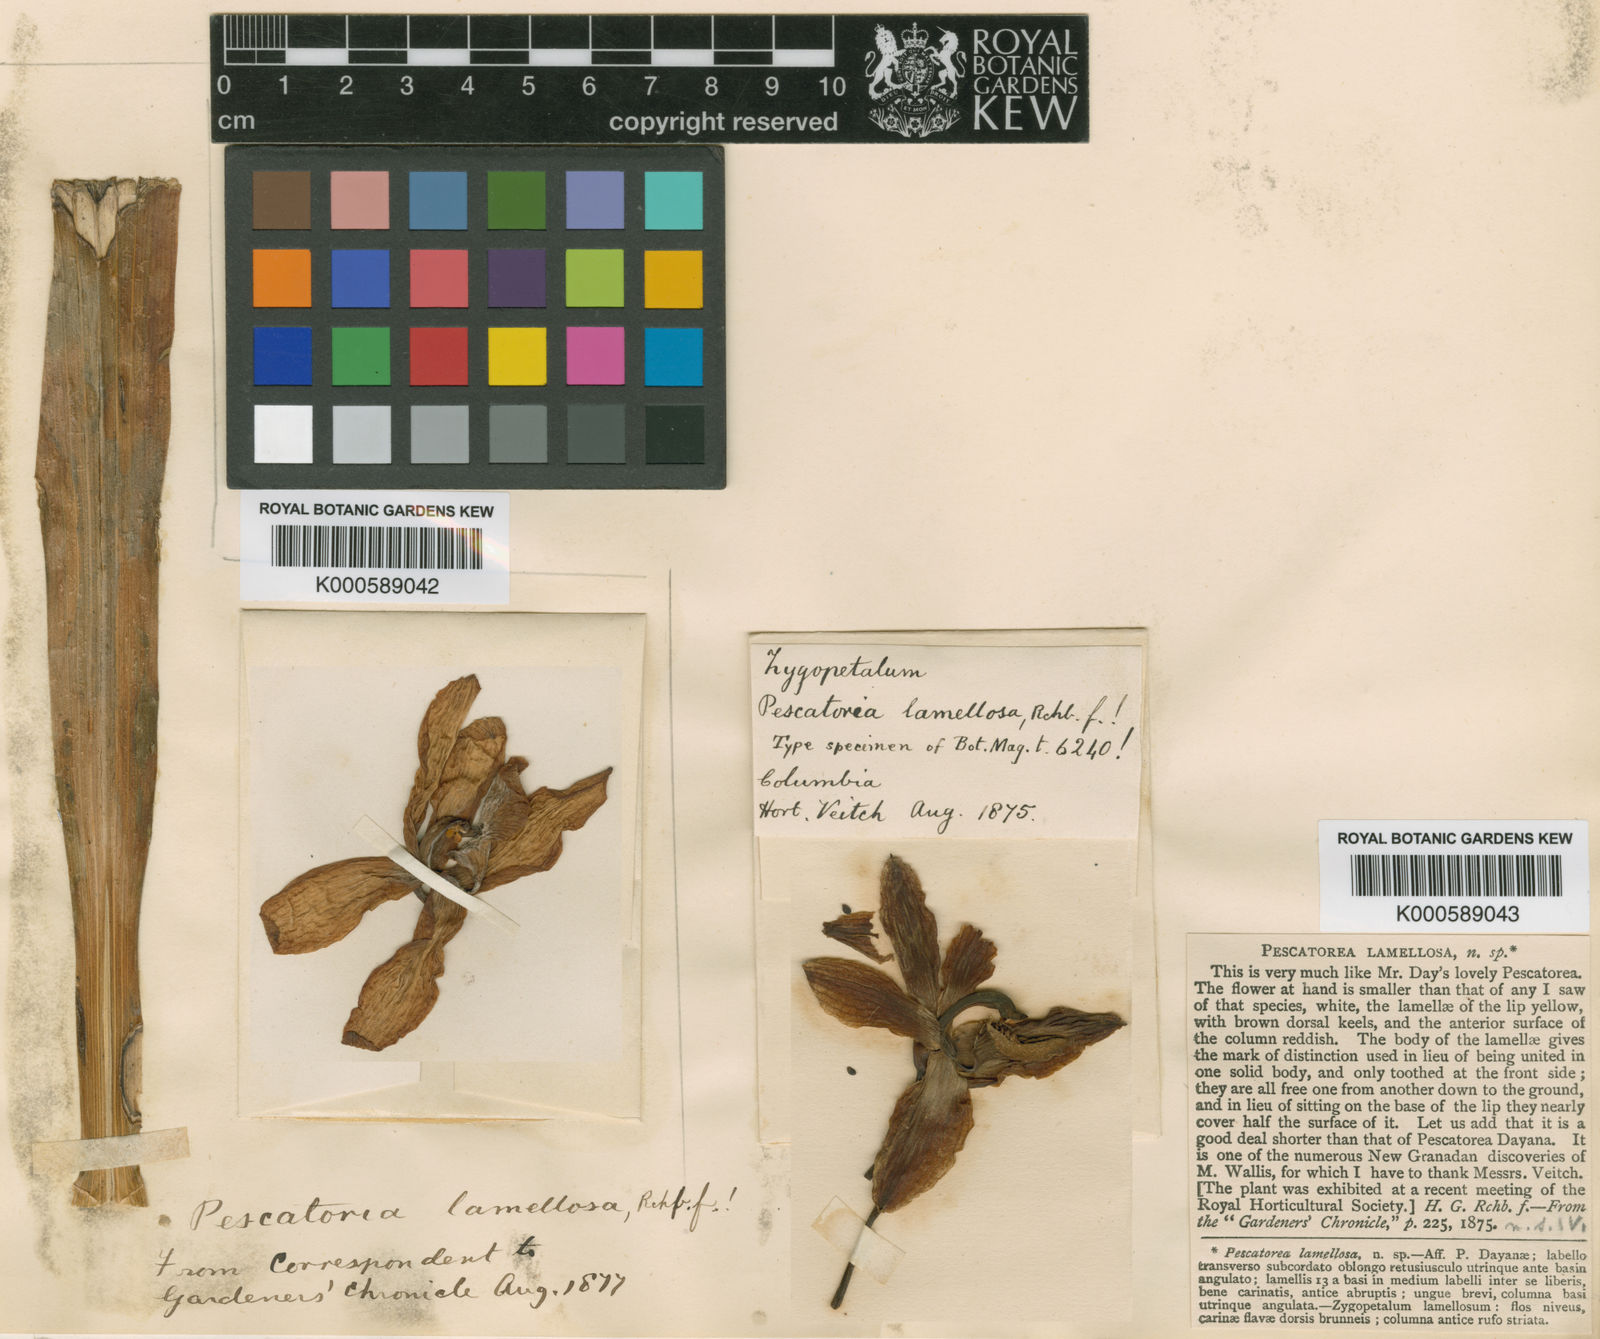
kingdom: Plantae
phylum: Tracheophyta
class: Liliopsida
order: Asparagales
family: Orchidaceae
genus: Pescatoria
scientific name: Pescatoria lamellosa
